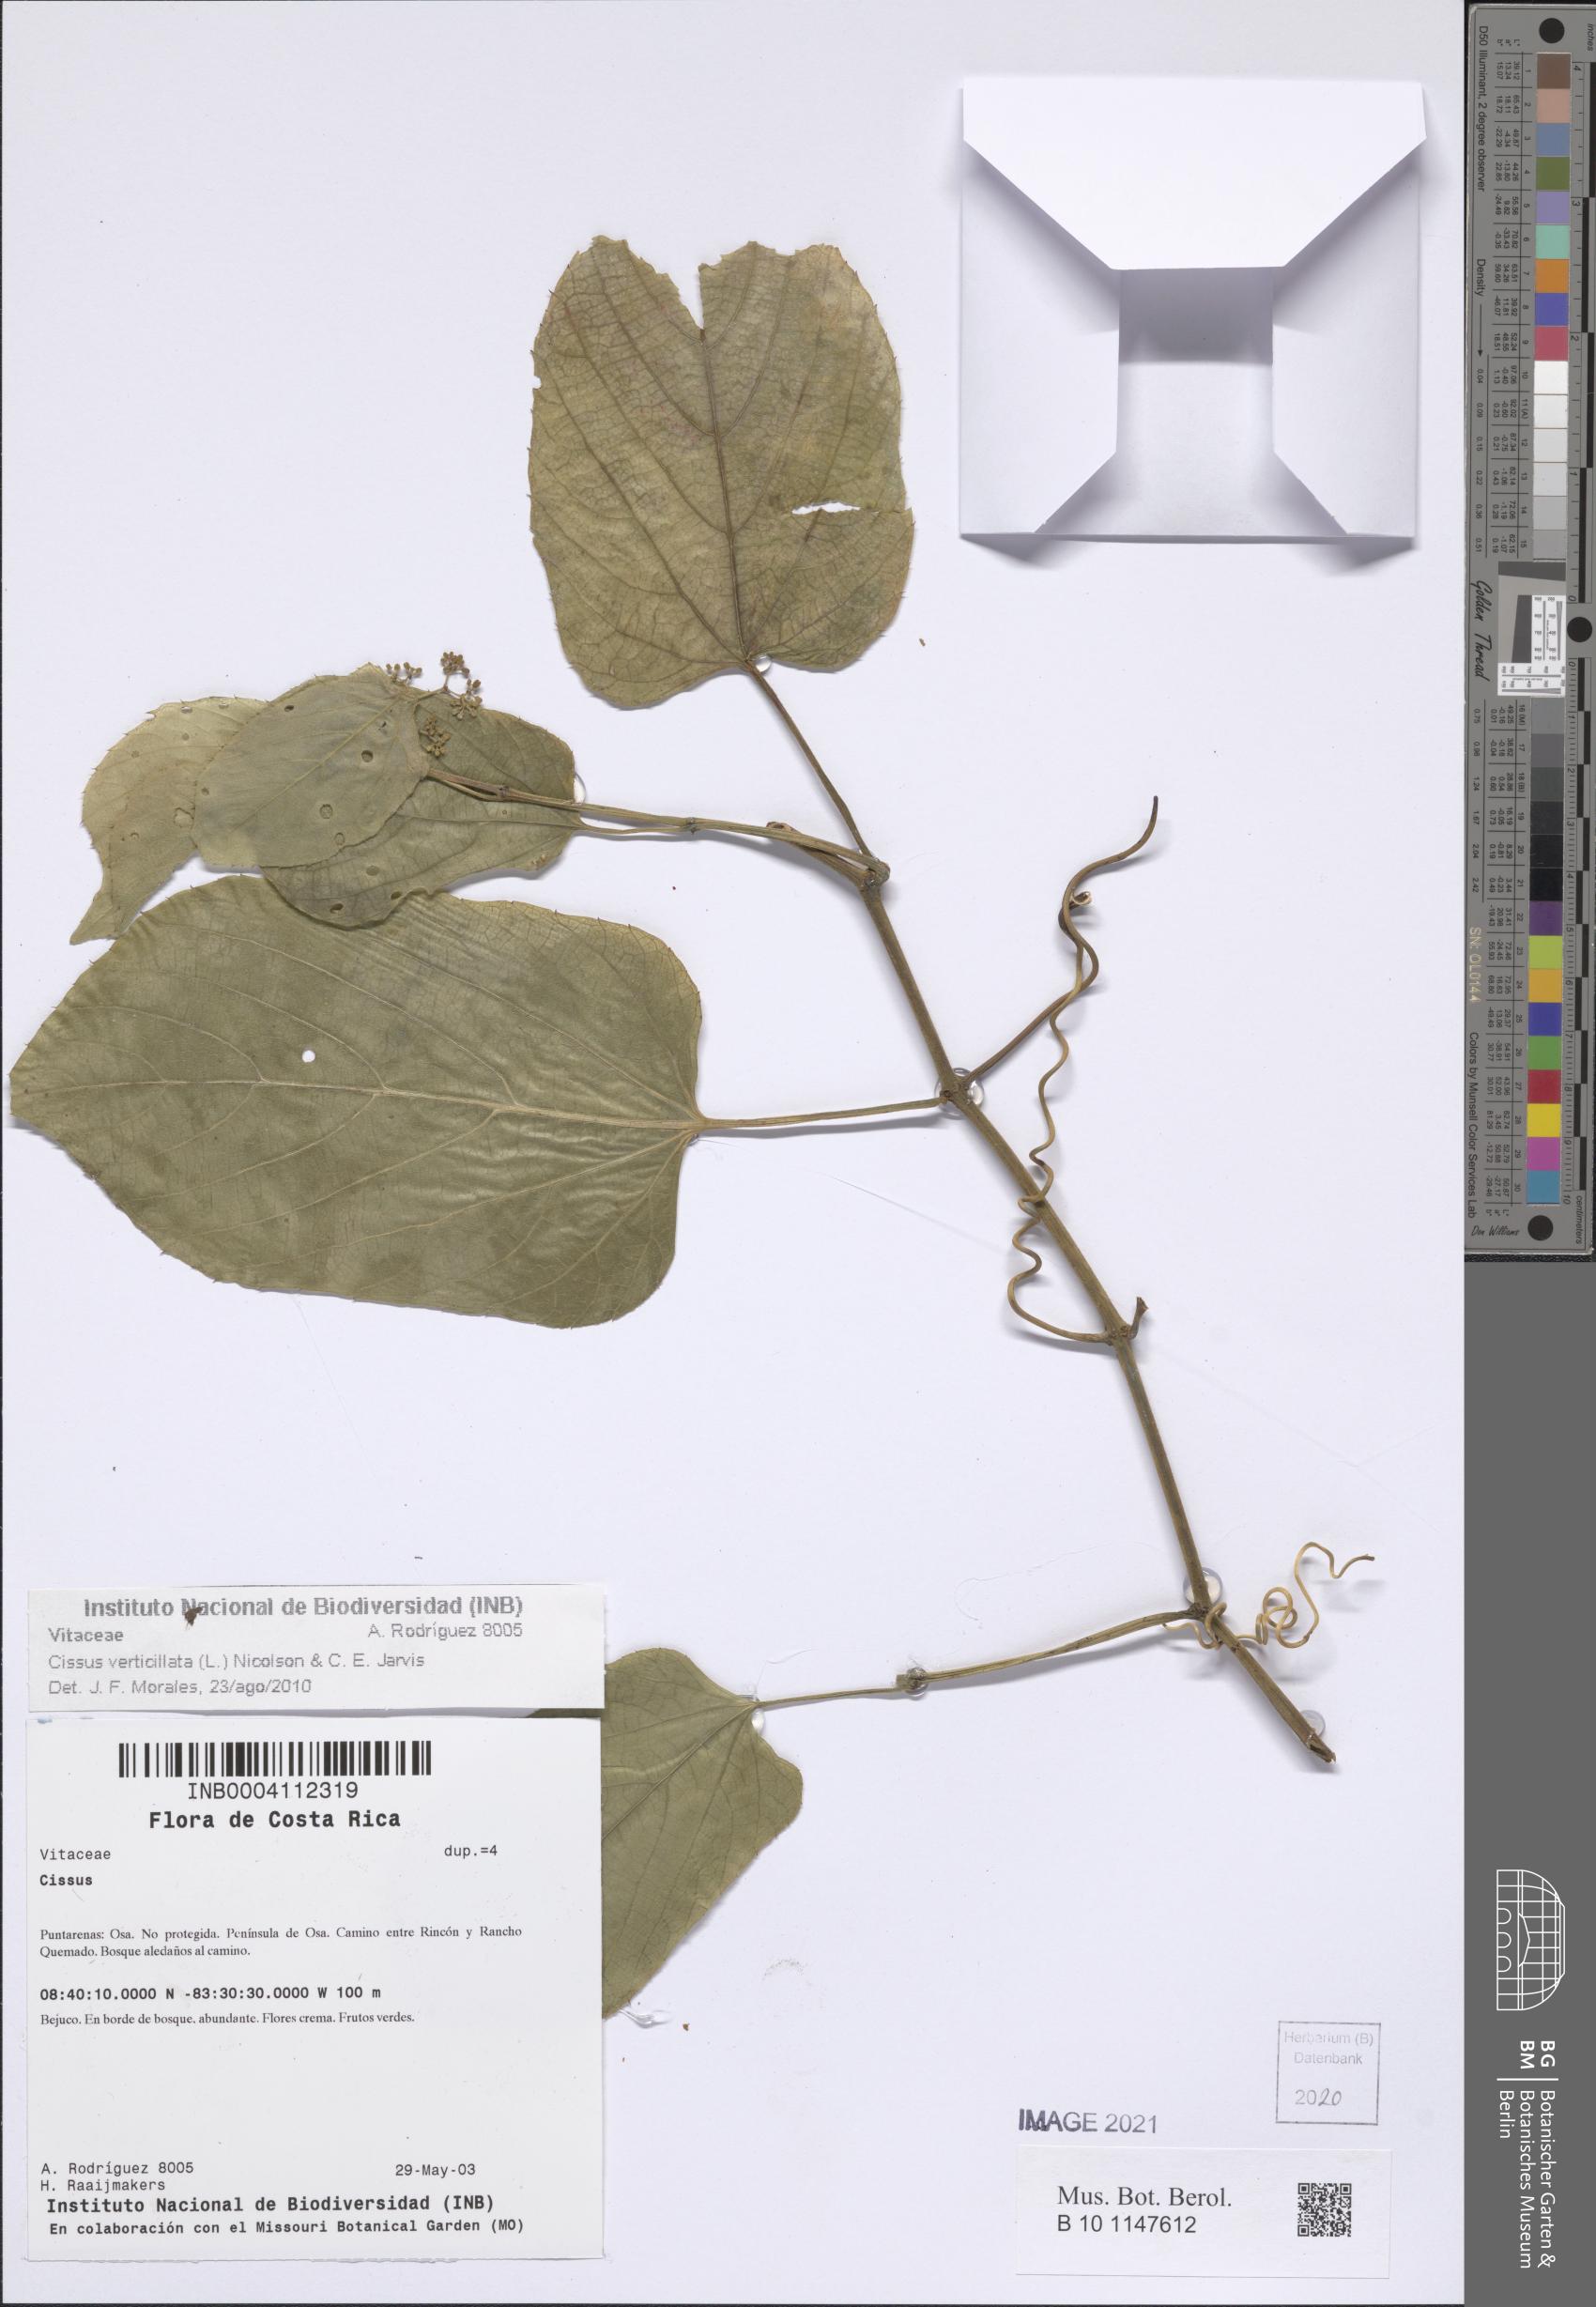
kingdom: Plantae
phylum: Tracheophyta
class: Magnoliopsida
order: Vitales
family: Vitaceae
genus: Cissus
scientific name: Cissus verticillata
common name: Princess vine
